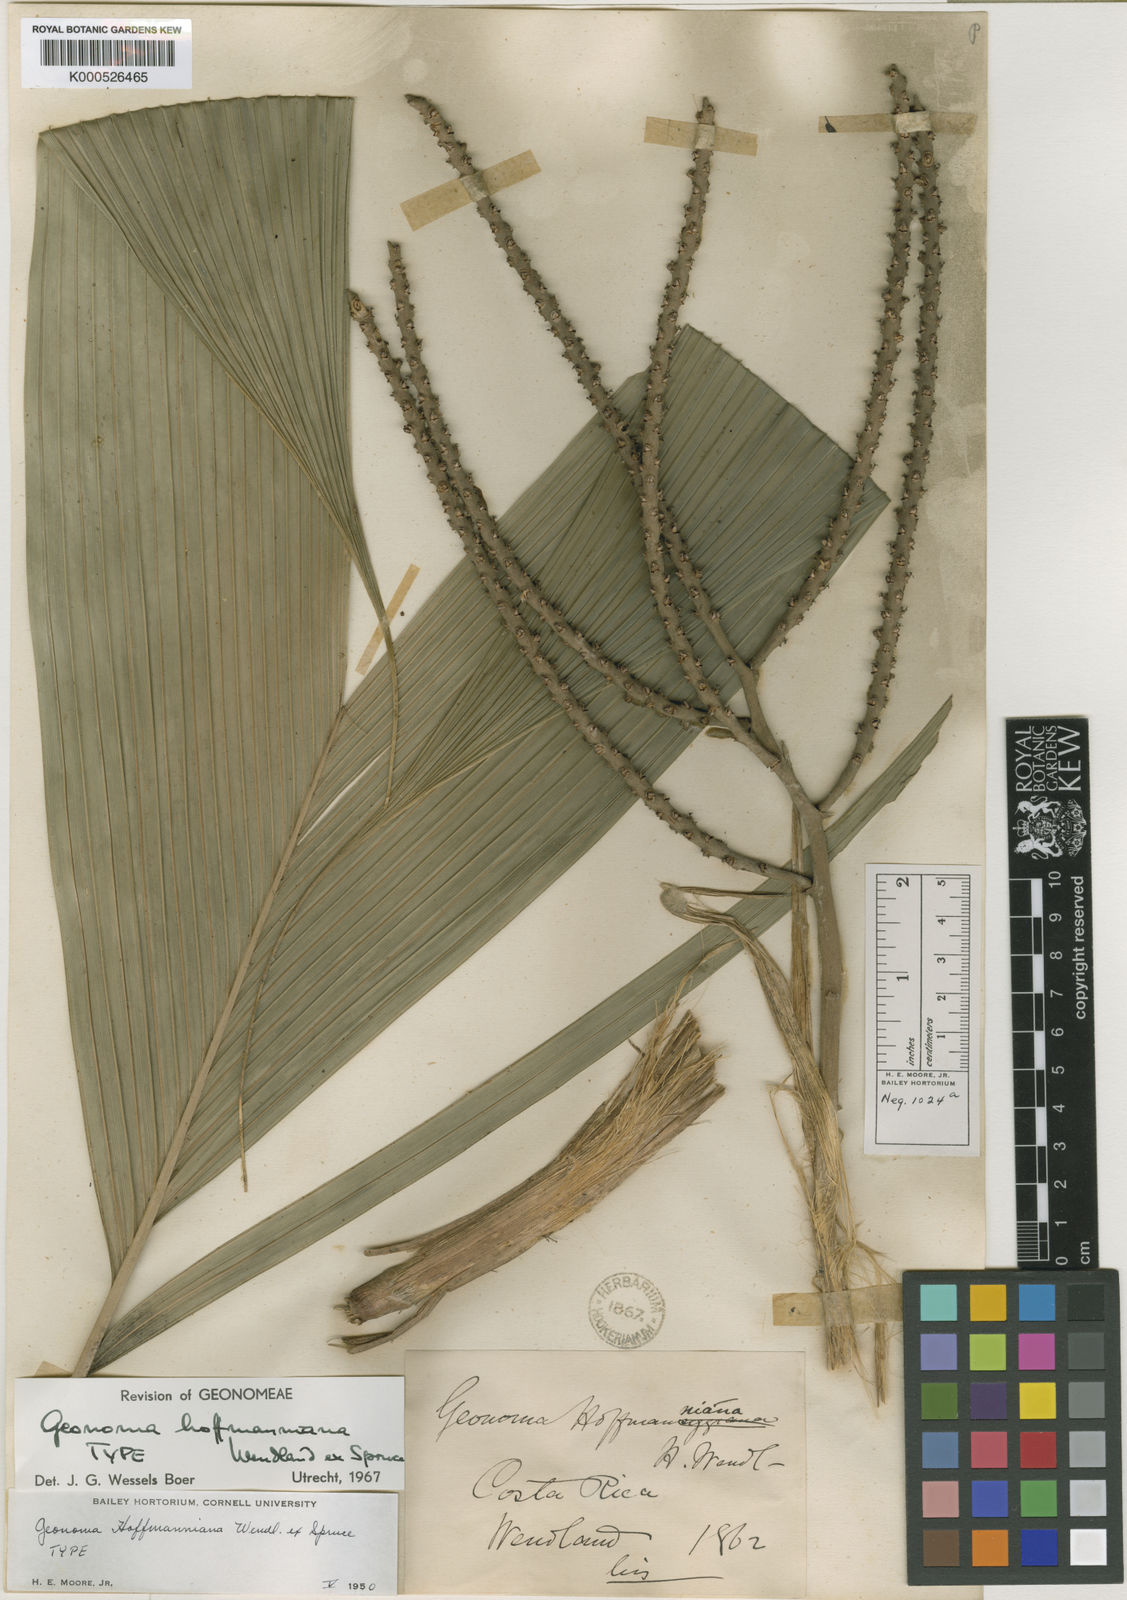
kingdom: Plantae
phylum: Tracheophyta
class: Liliopsida
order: Arecales
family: Arecaceae
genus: Geonoma
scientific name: Geonoma orbignyana
